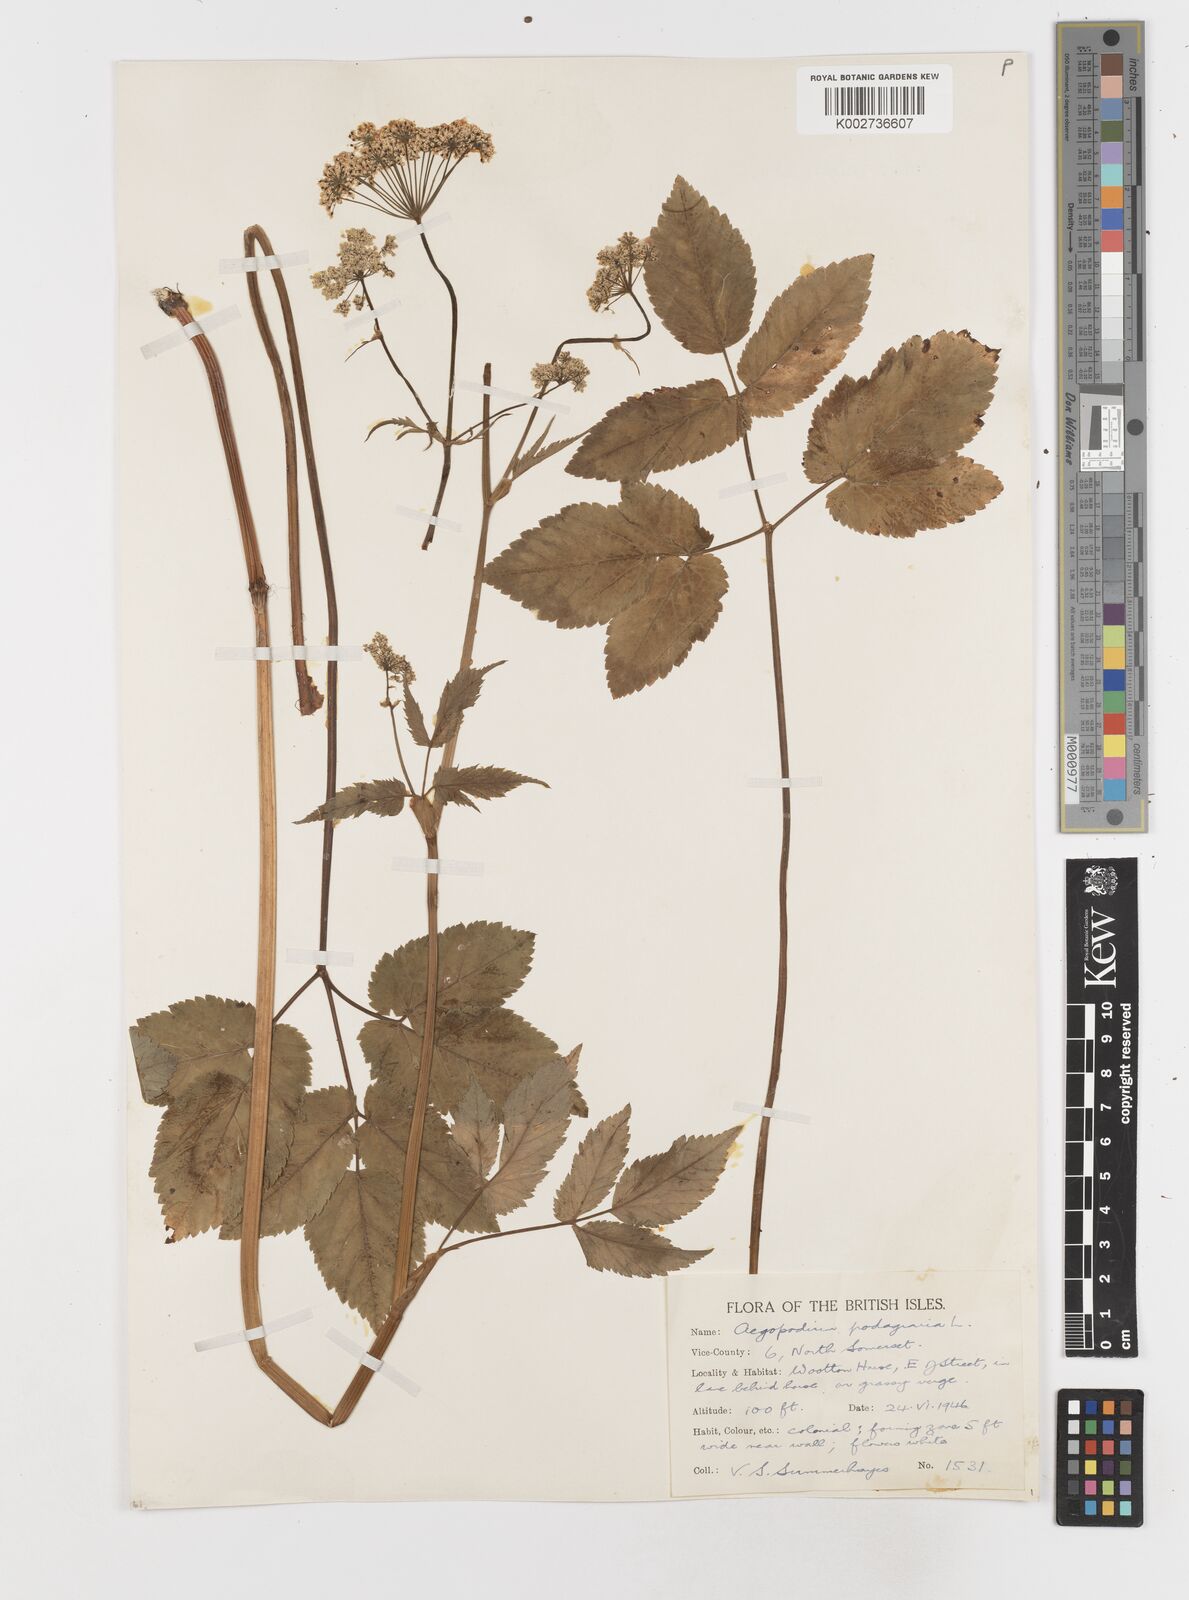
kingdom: Plantae
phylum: Tracheophyta
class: Magnoliopsida
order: Apiales
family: Apiaceae
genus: Aegopodium
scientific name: Aegopodium podagraria
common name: Ground-elder
